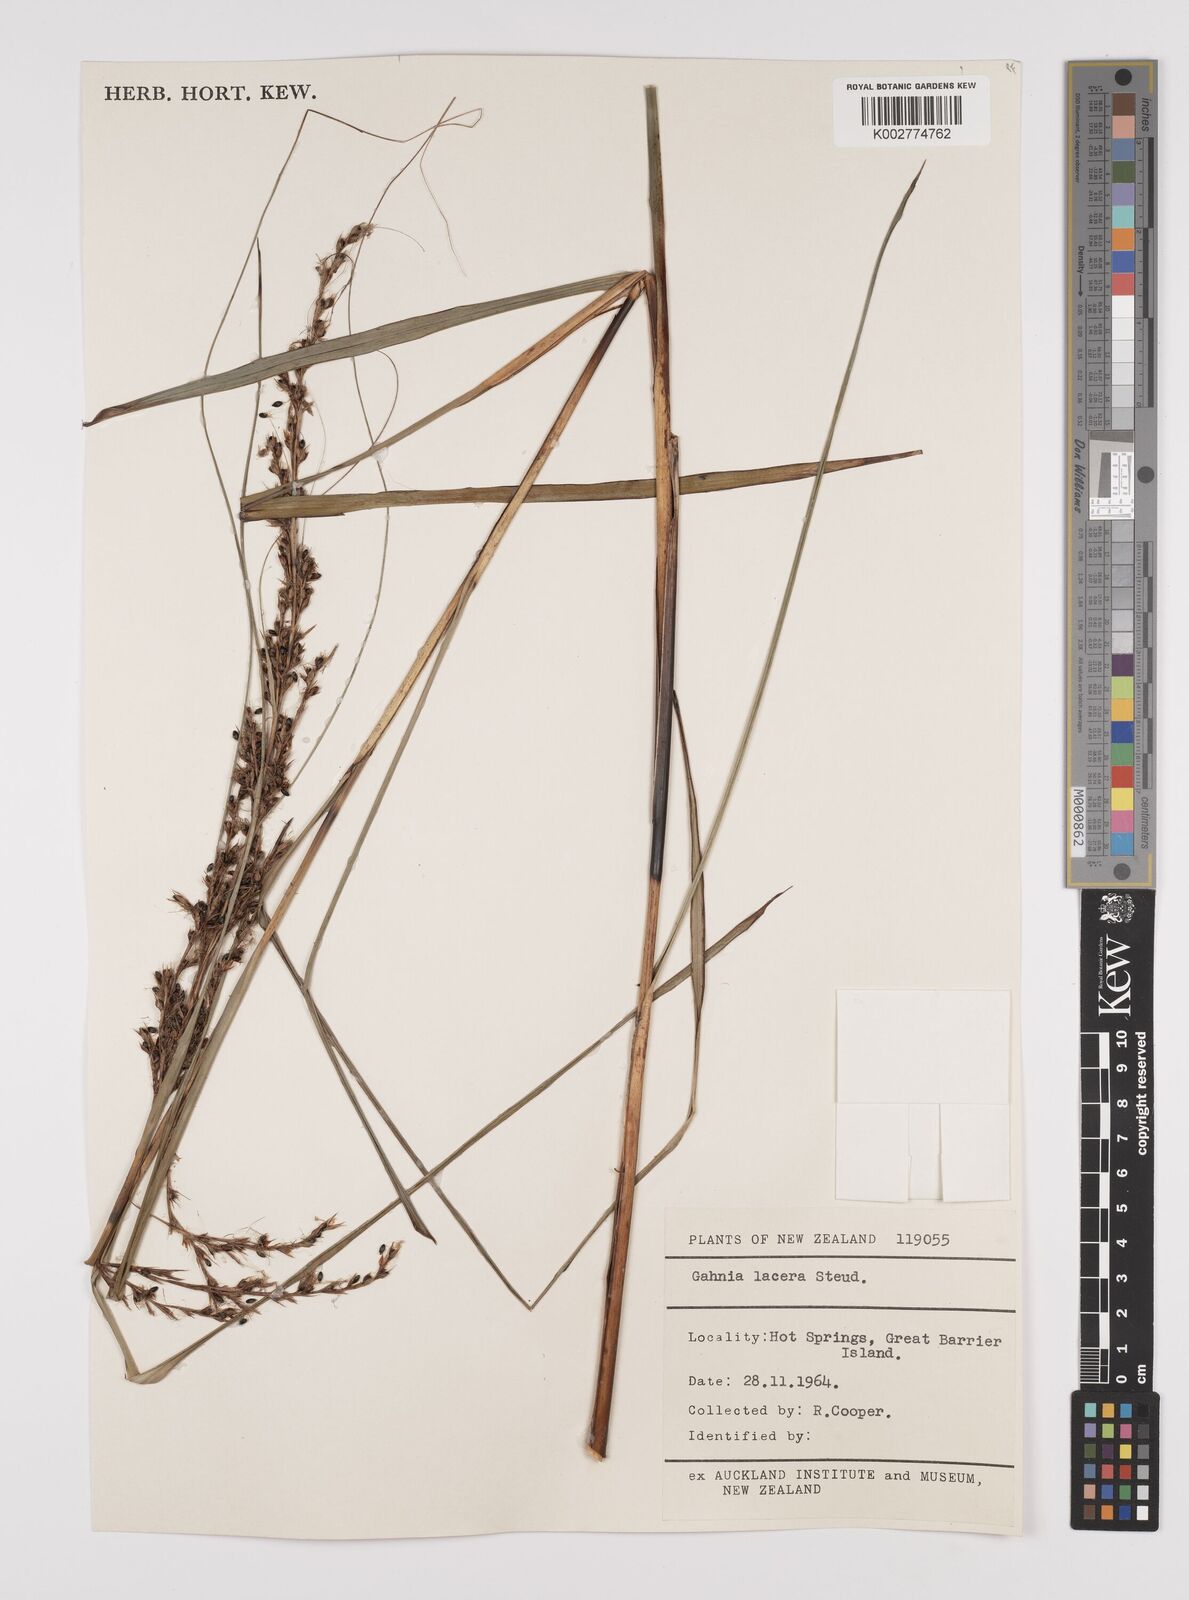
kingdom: Plantae
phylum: Tracheophyta
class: Liliopsida
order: Poales
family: Cyperaceae
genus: Gahnia
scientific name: Gahnia lacera
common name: Sawsedge
